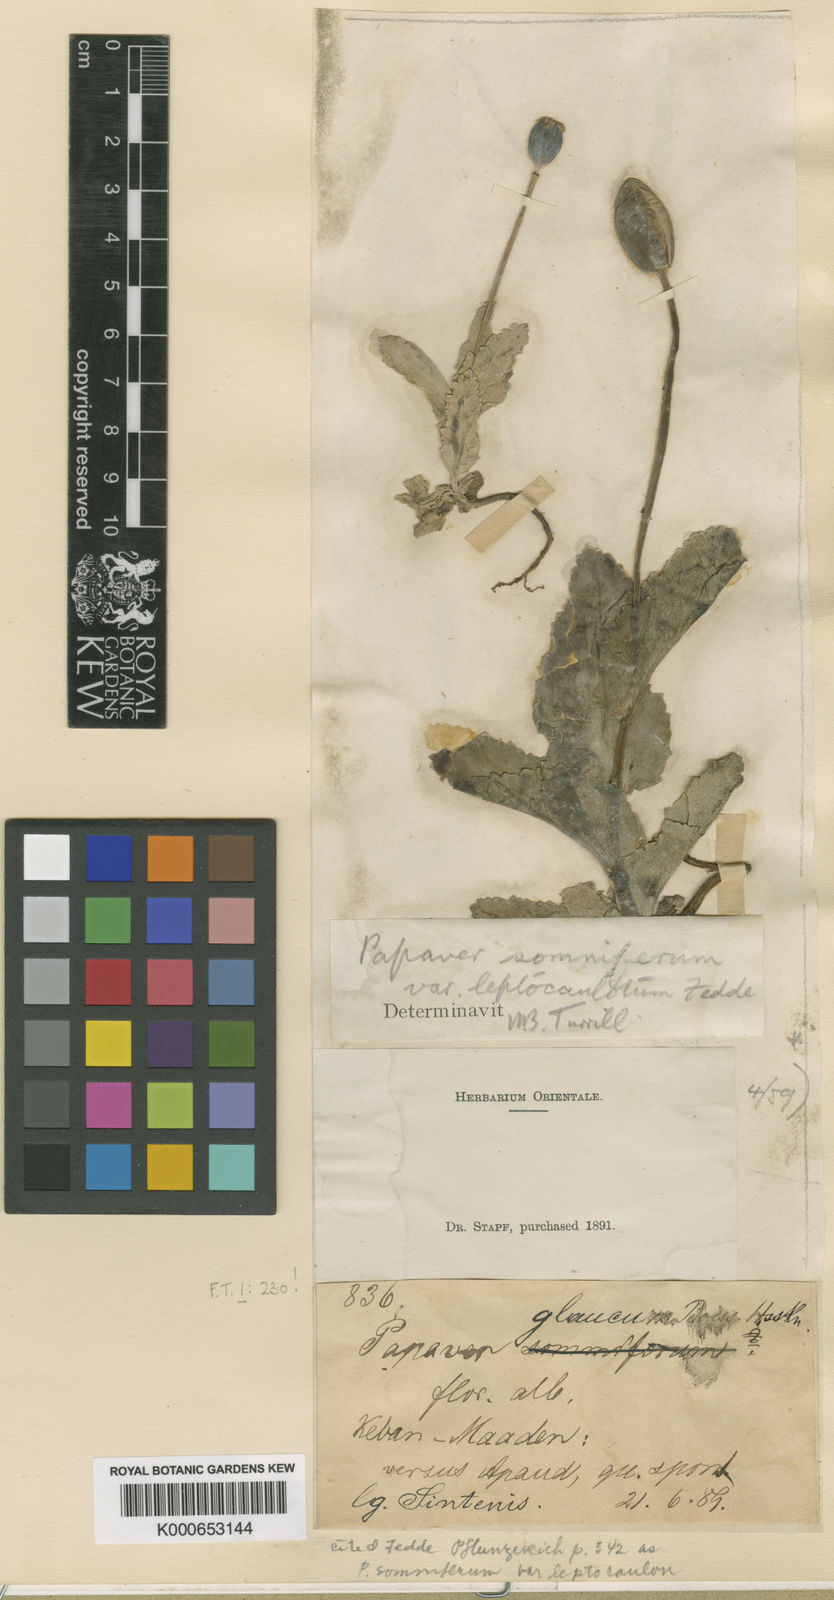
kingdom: Plantae
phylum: Tracheophyta
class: Magnoliopsida
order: Ranunculales
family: Papaveraceae
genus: Papaver
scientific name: Papaver somniferum
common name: Opium poppy
